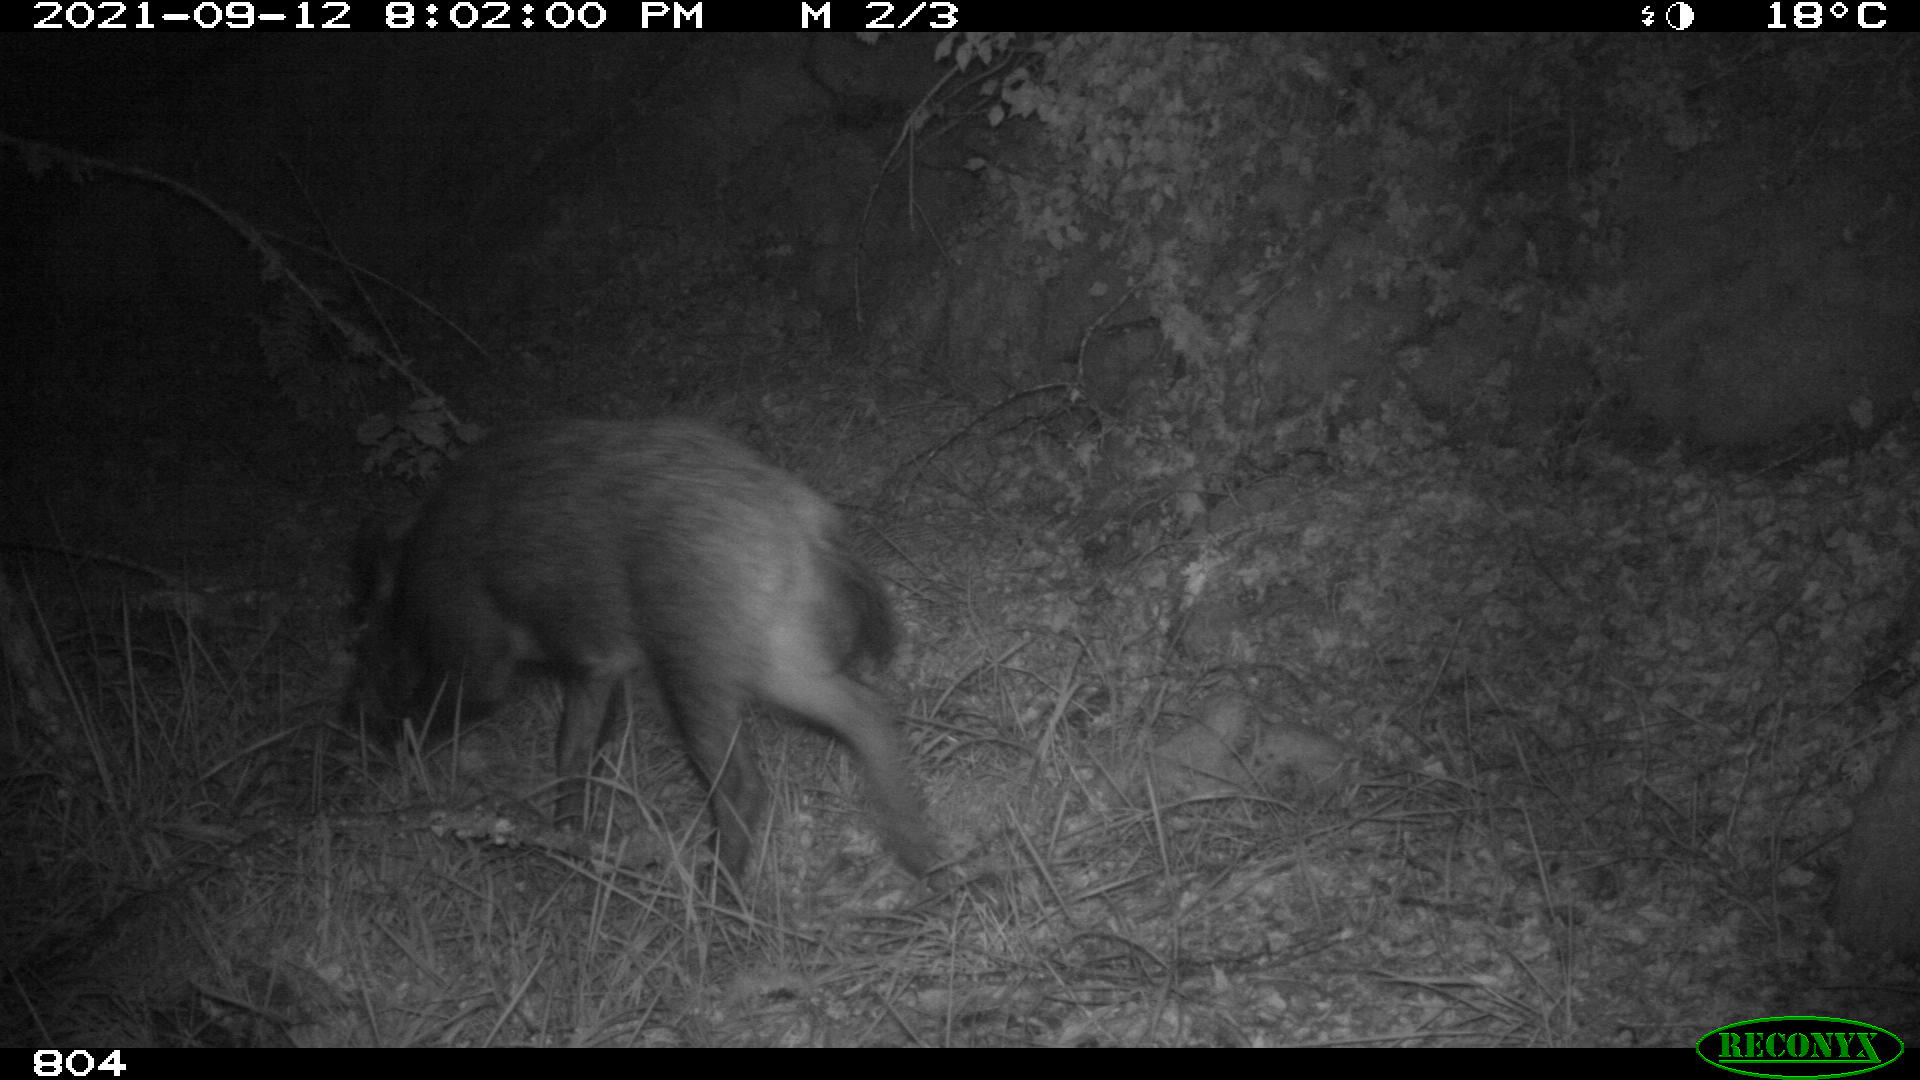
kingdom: Animalia
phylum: Chordata
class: Mammalia
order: Artiodactyla
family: Suidae
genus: Sus
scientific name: Sus scrofa
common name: Wild boar
